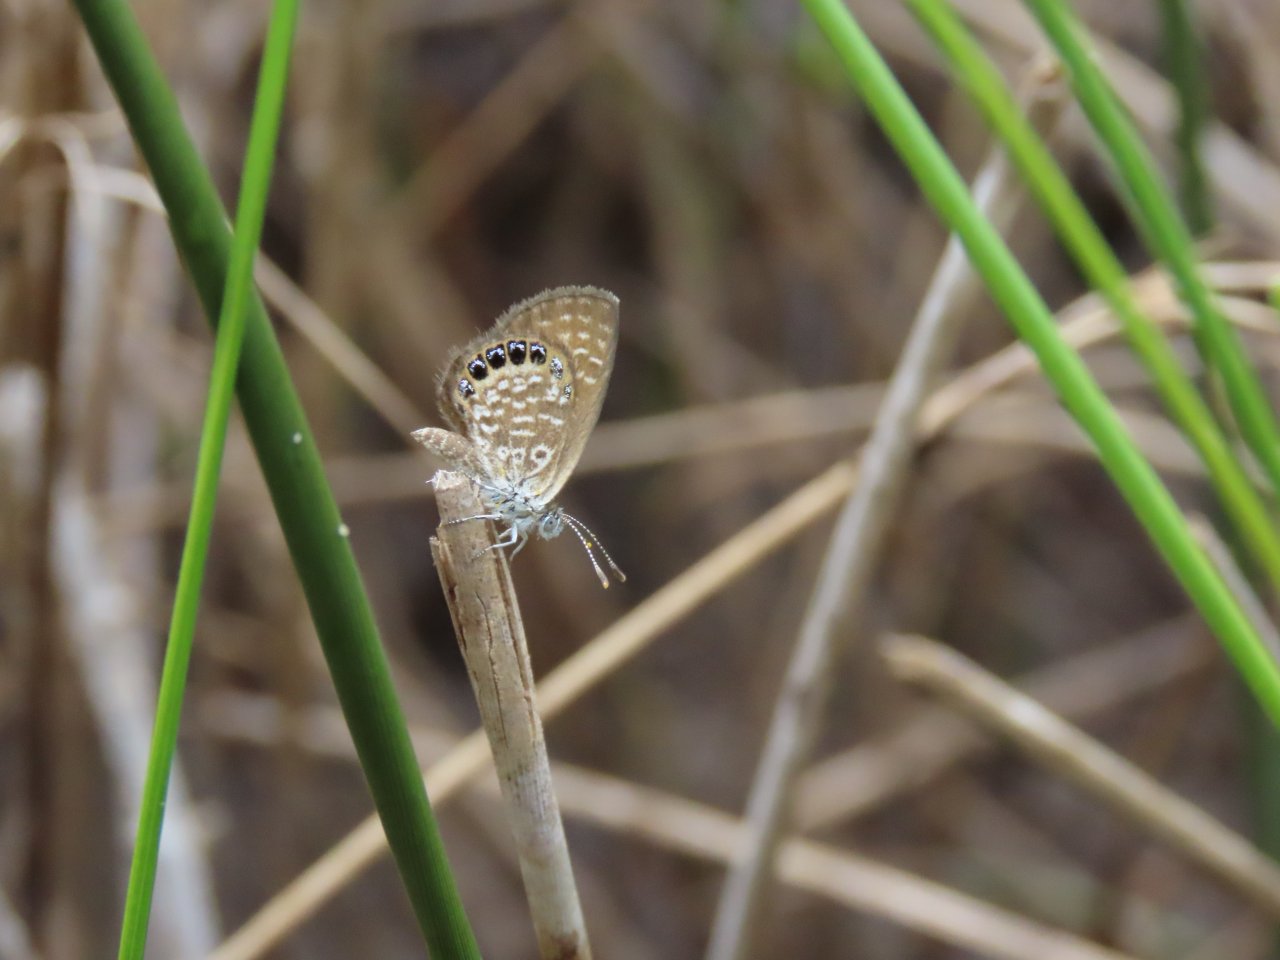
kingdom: Animalia
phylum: Arthropoda
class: Insecta
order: Lepidoptera
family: Lycaenidae
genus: Brephidium
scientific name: Brephidium isophthalma
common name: Eastern Pygmy-Blue
